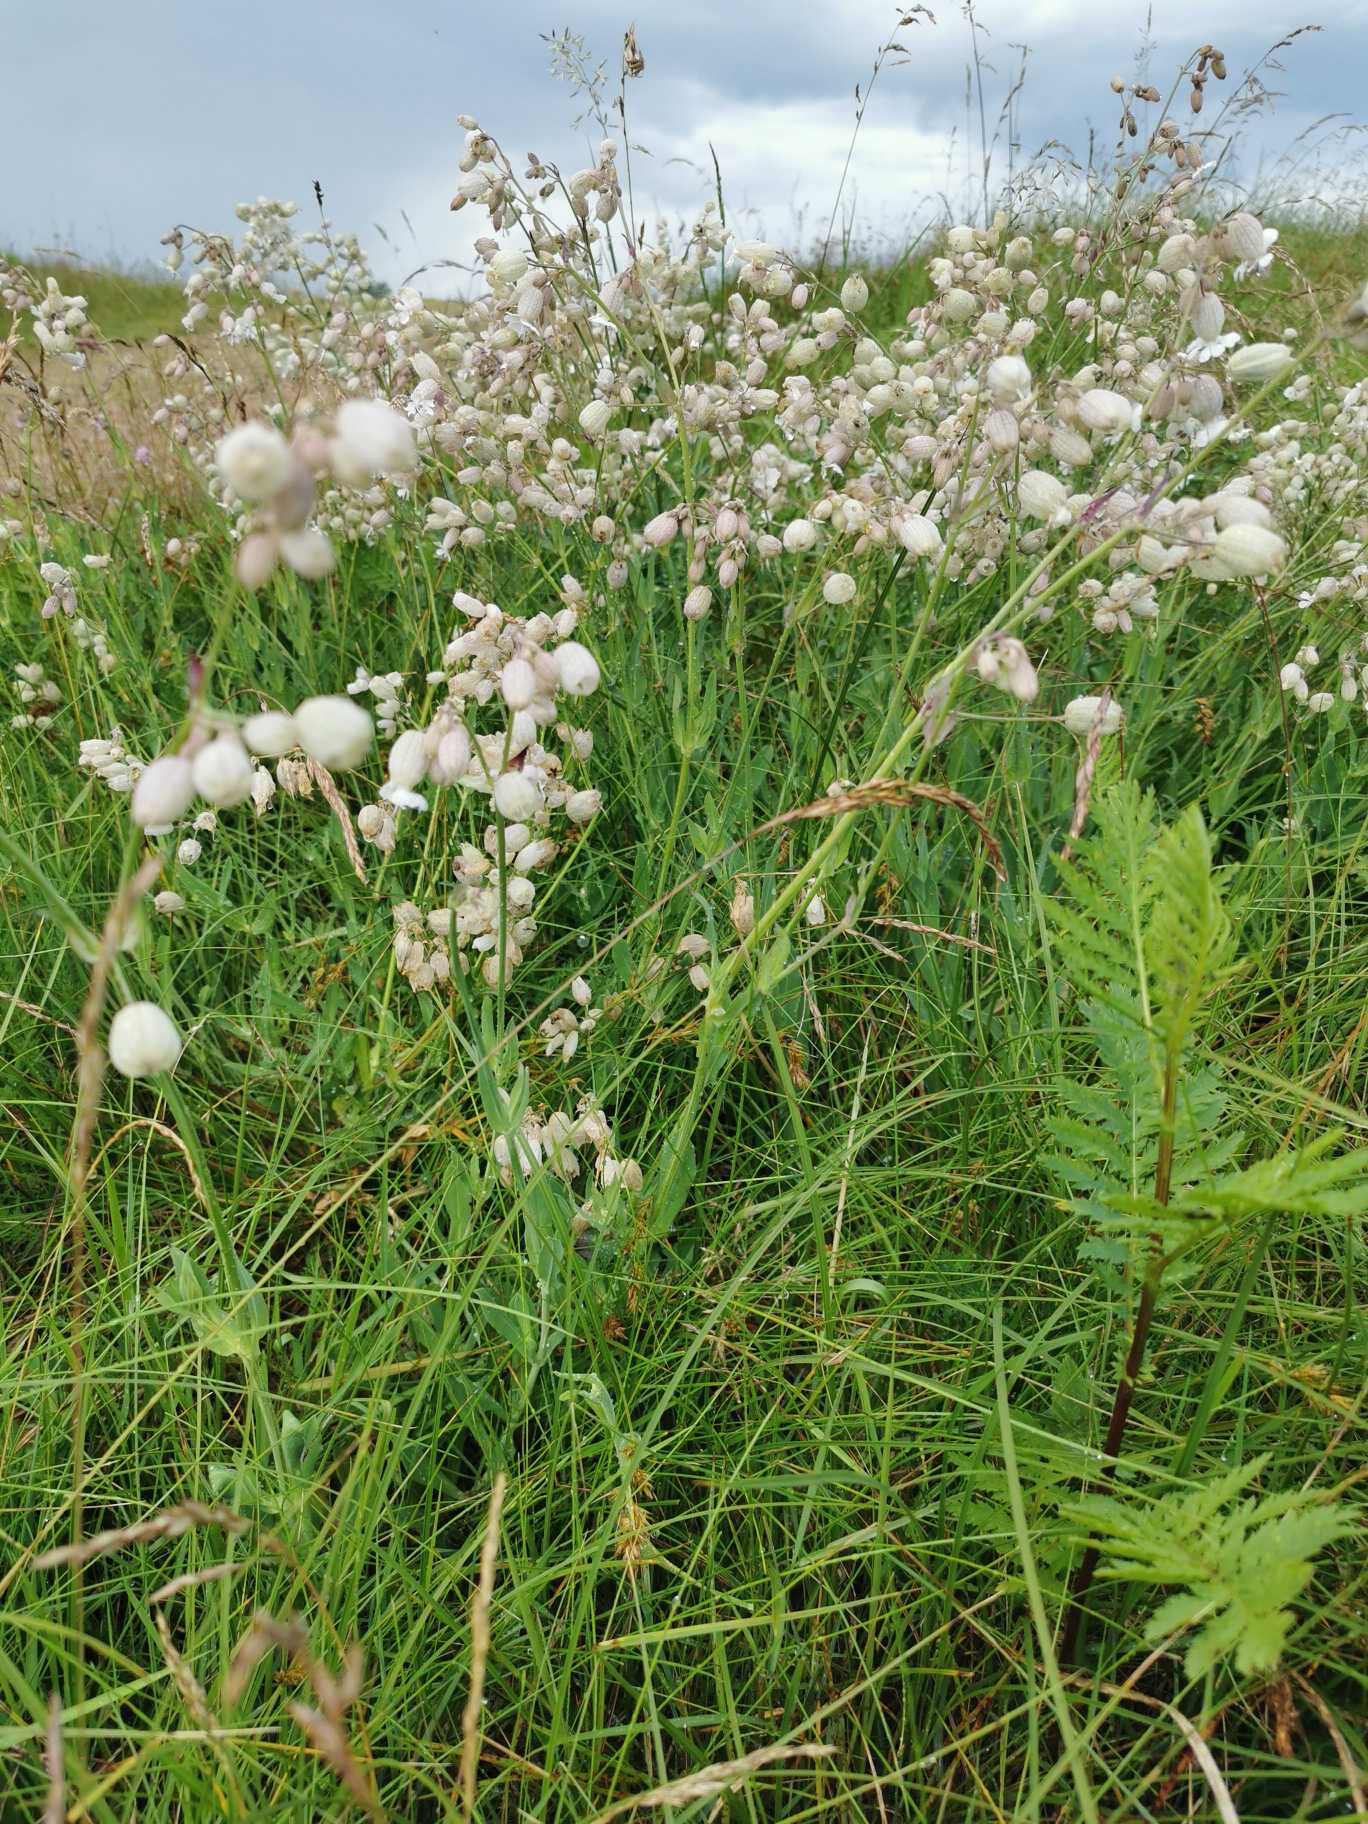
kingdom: Plantae
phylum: Tracheophyta
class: Magnoliopsida
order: Caryophyllales
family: Caryophyllaceae
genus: Silene
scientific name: Silene vulgaris
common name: Blæresmælde
